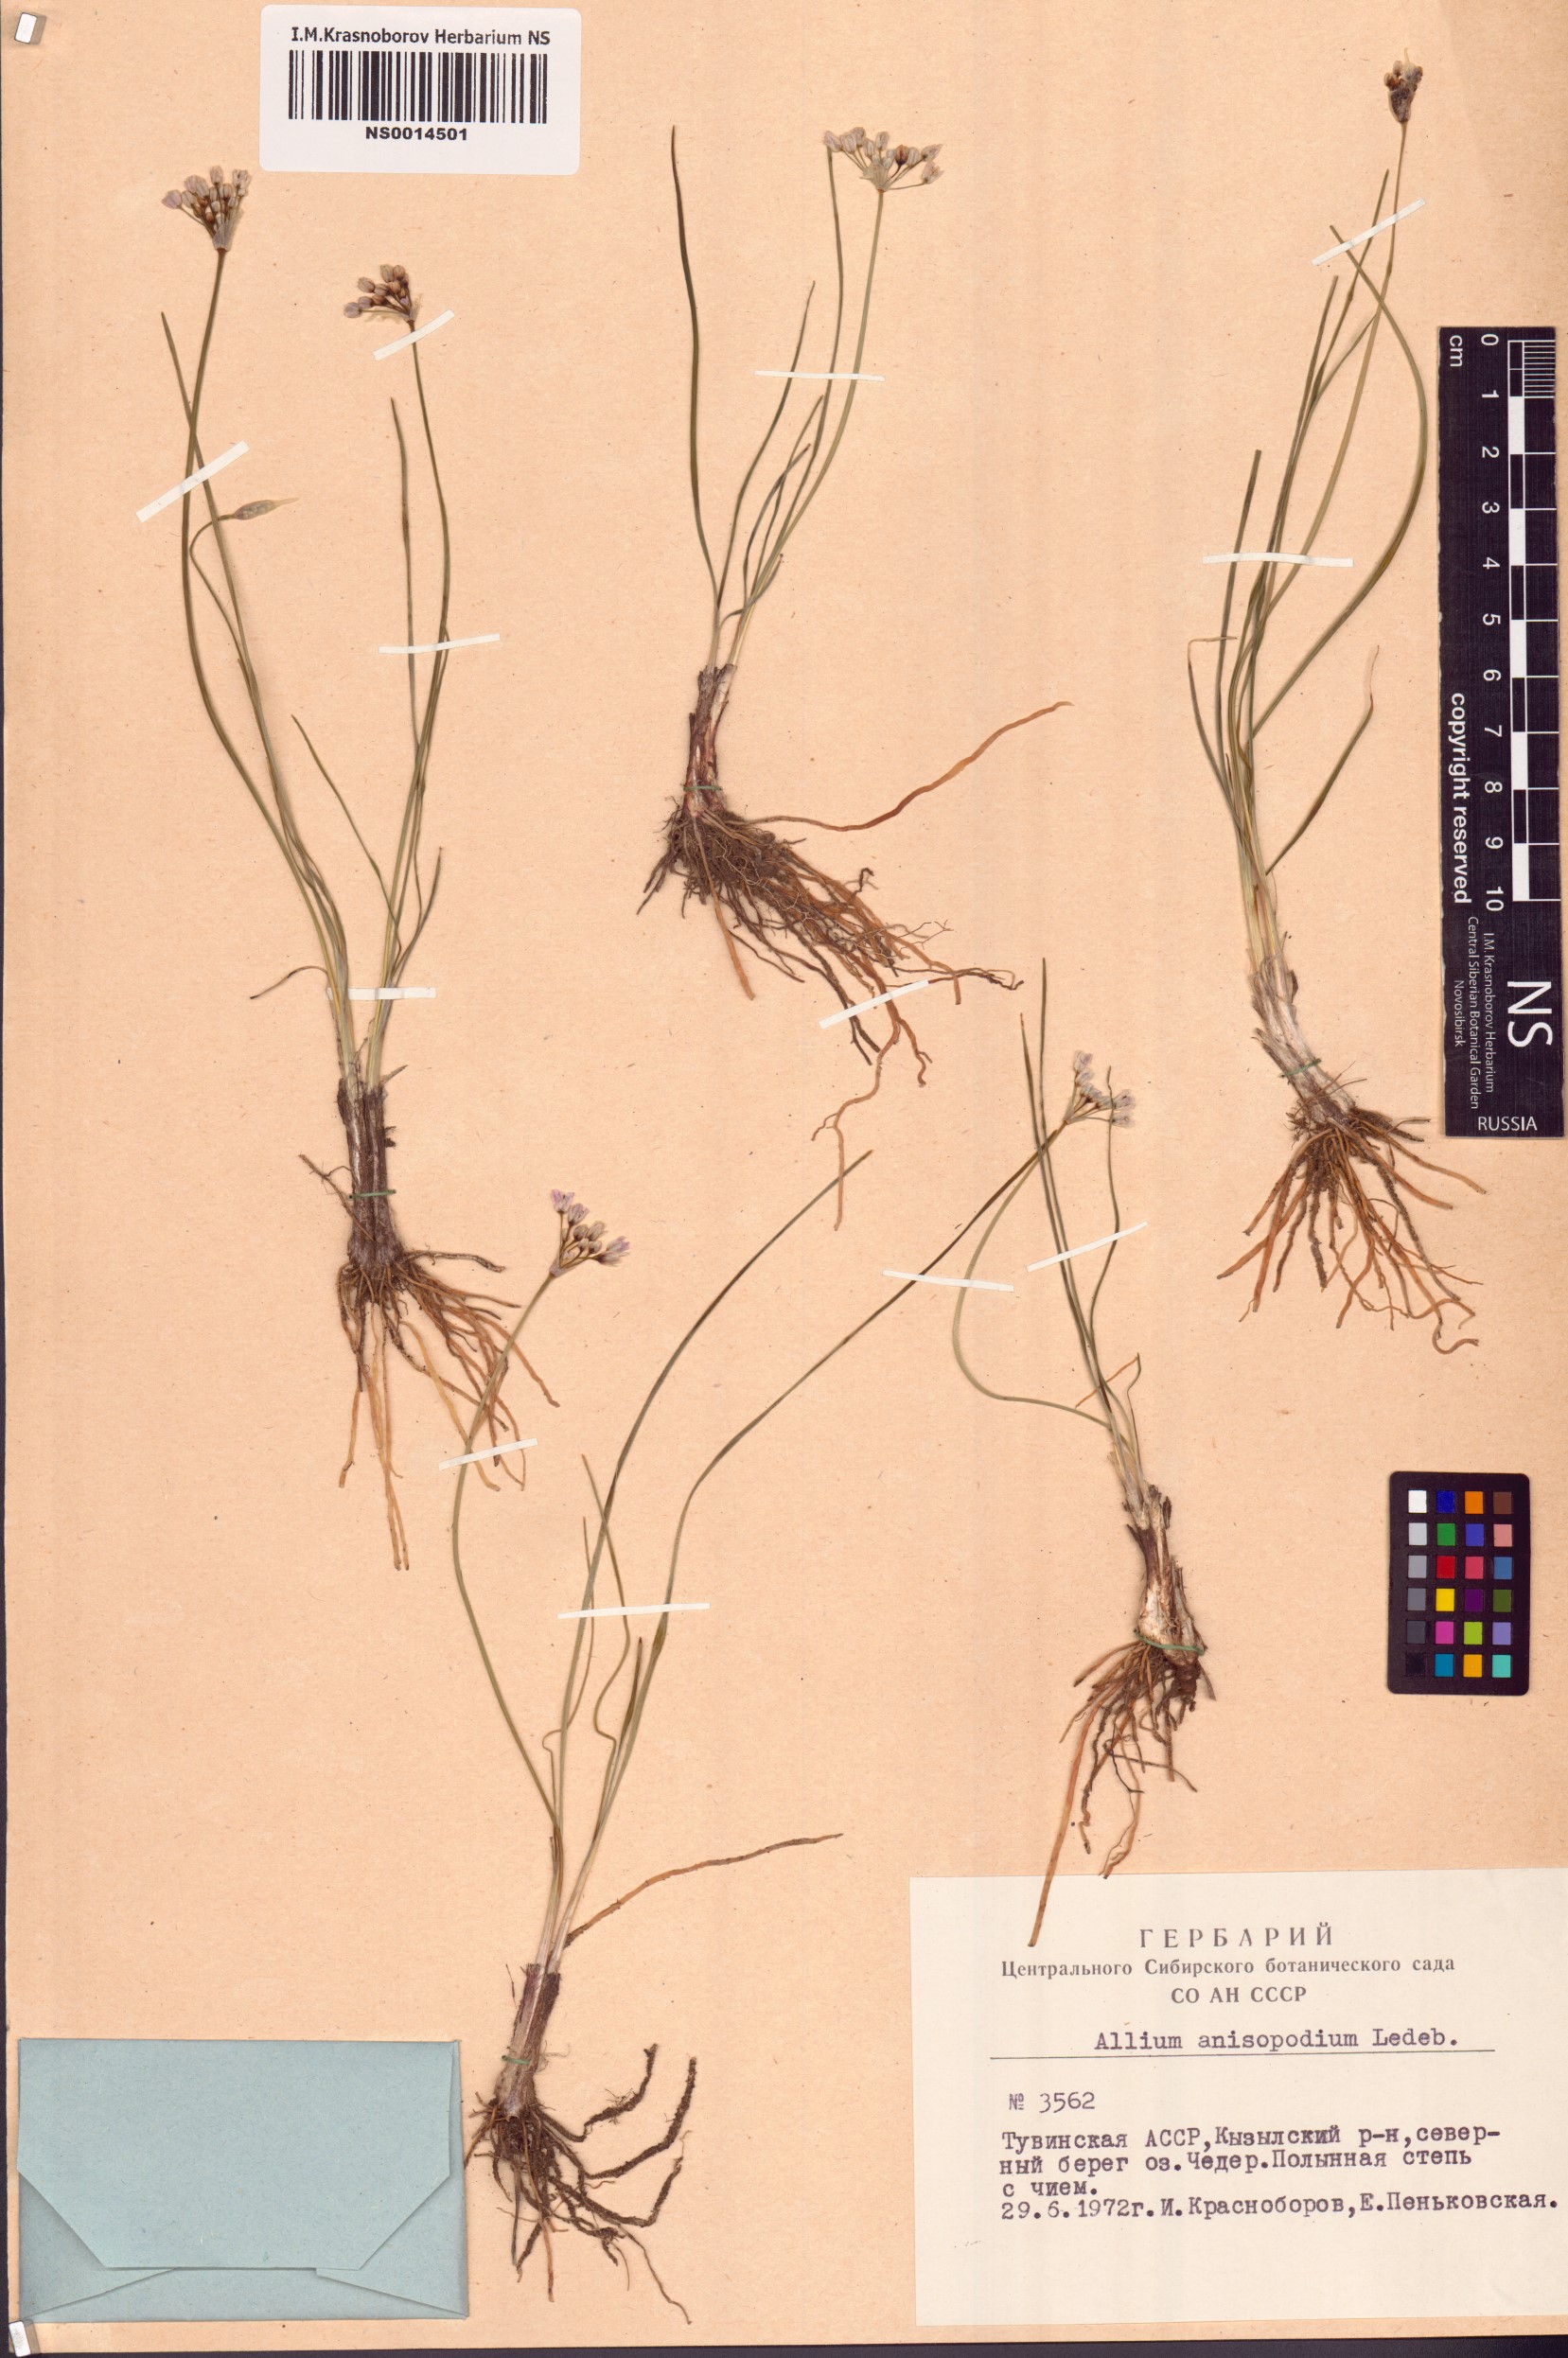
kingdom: Plantae
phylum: Tracheophyta
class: Liliopsida
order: Asparagales
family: Amaryllidaceae
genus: Allium
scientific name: Allium anisopodium
